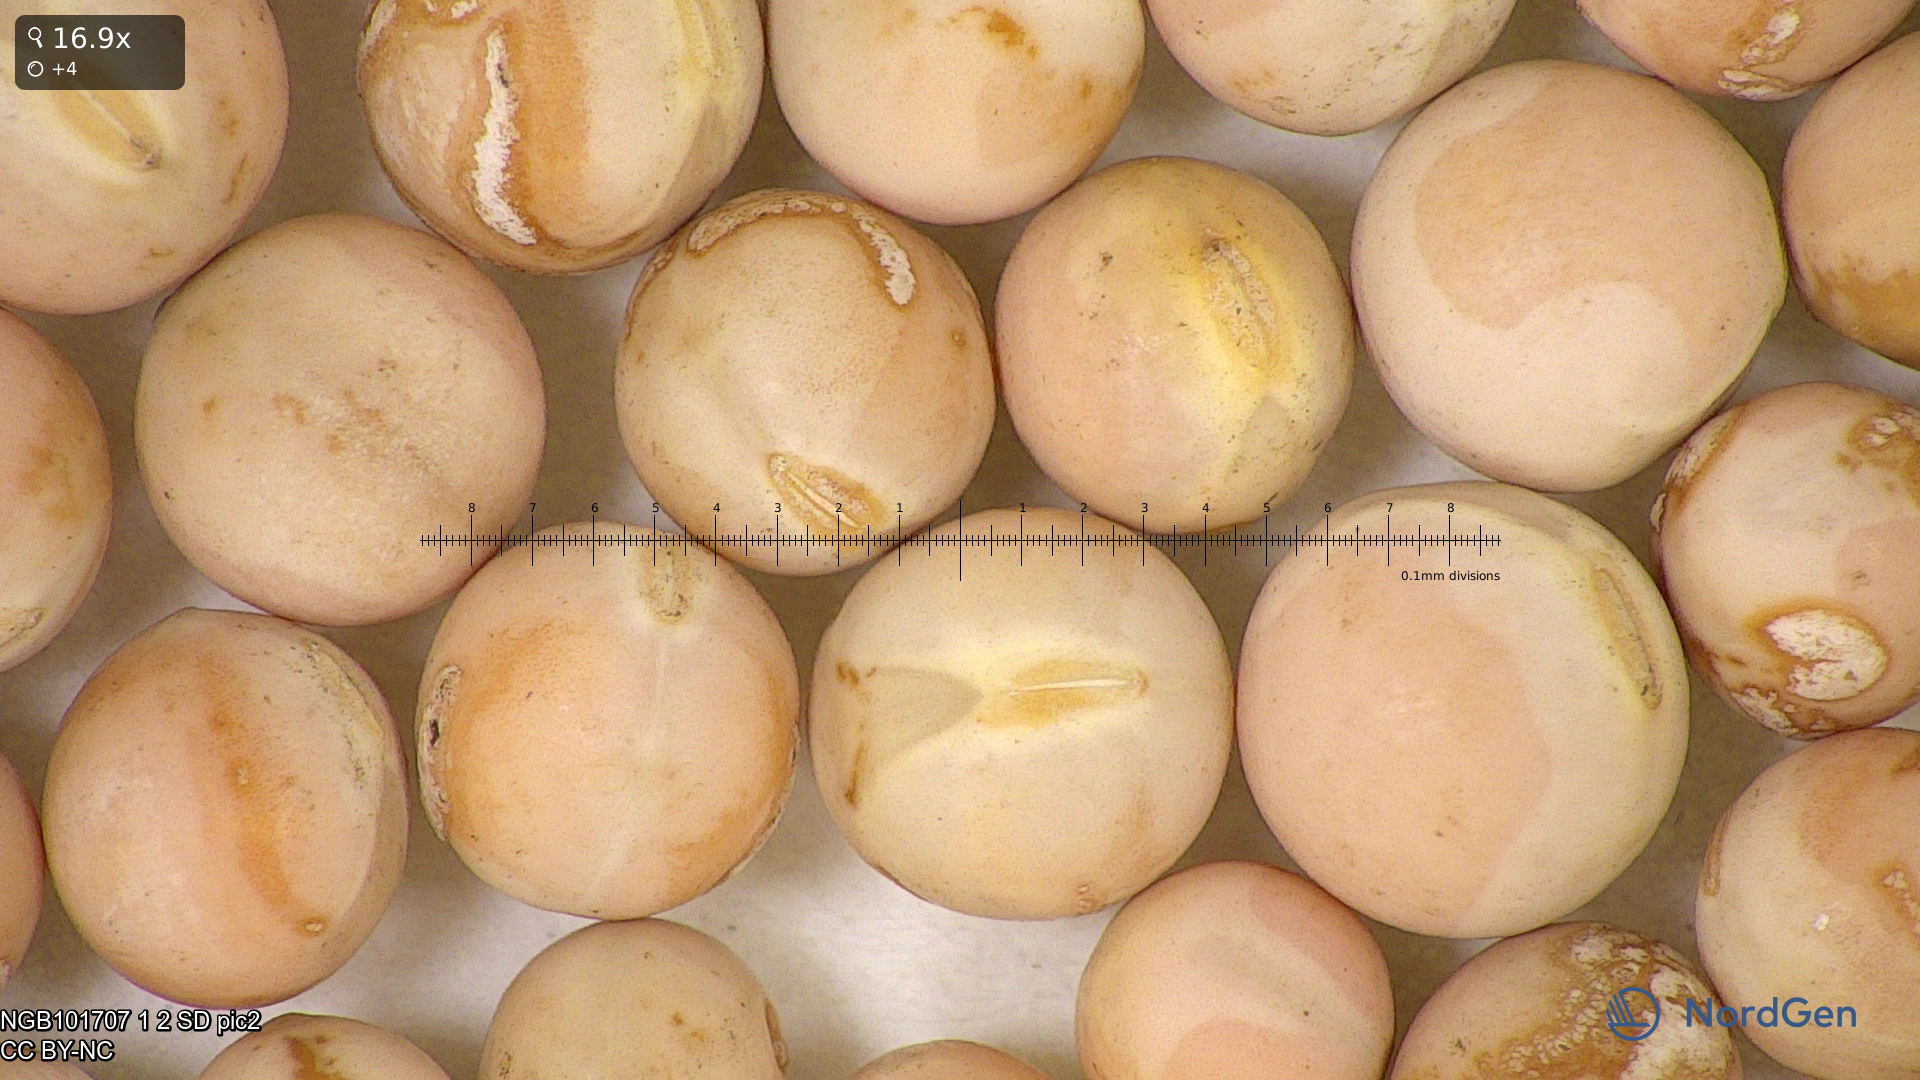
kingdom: Plantae
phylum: Tracheophyta
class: Magnoliopsida
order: Fabales
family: Fabaceae
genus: Lathyrus
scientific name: Lathyrus oleraceus
